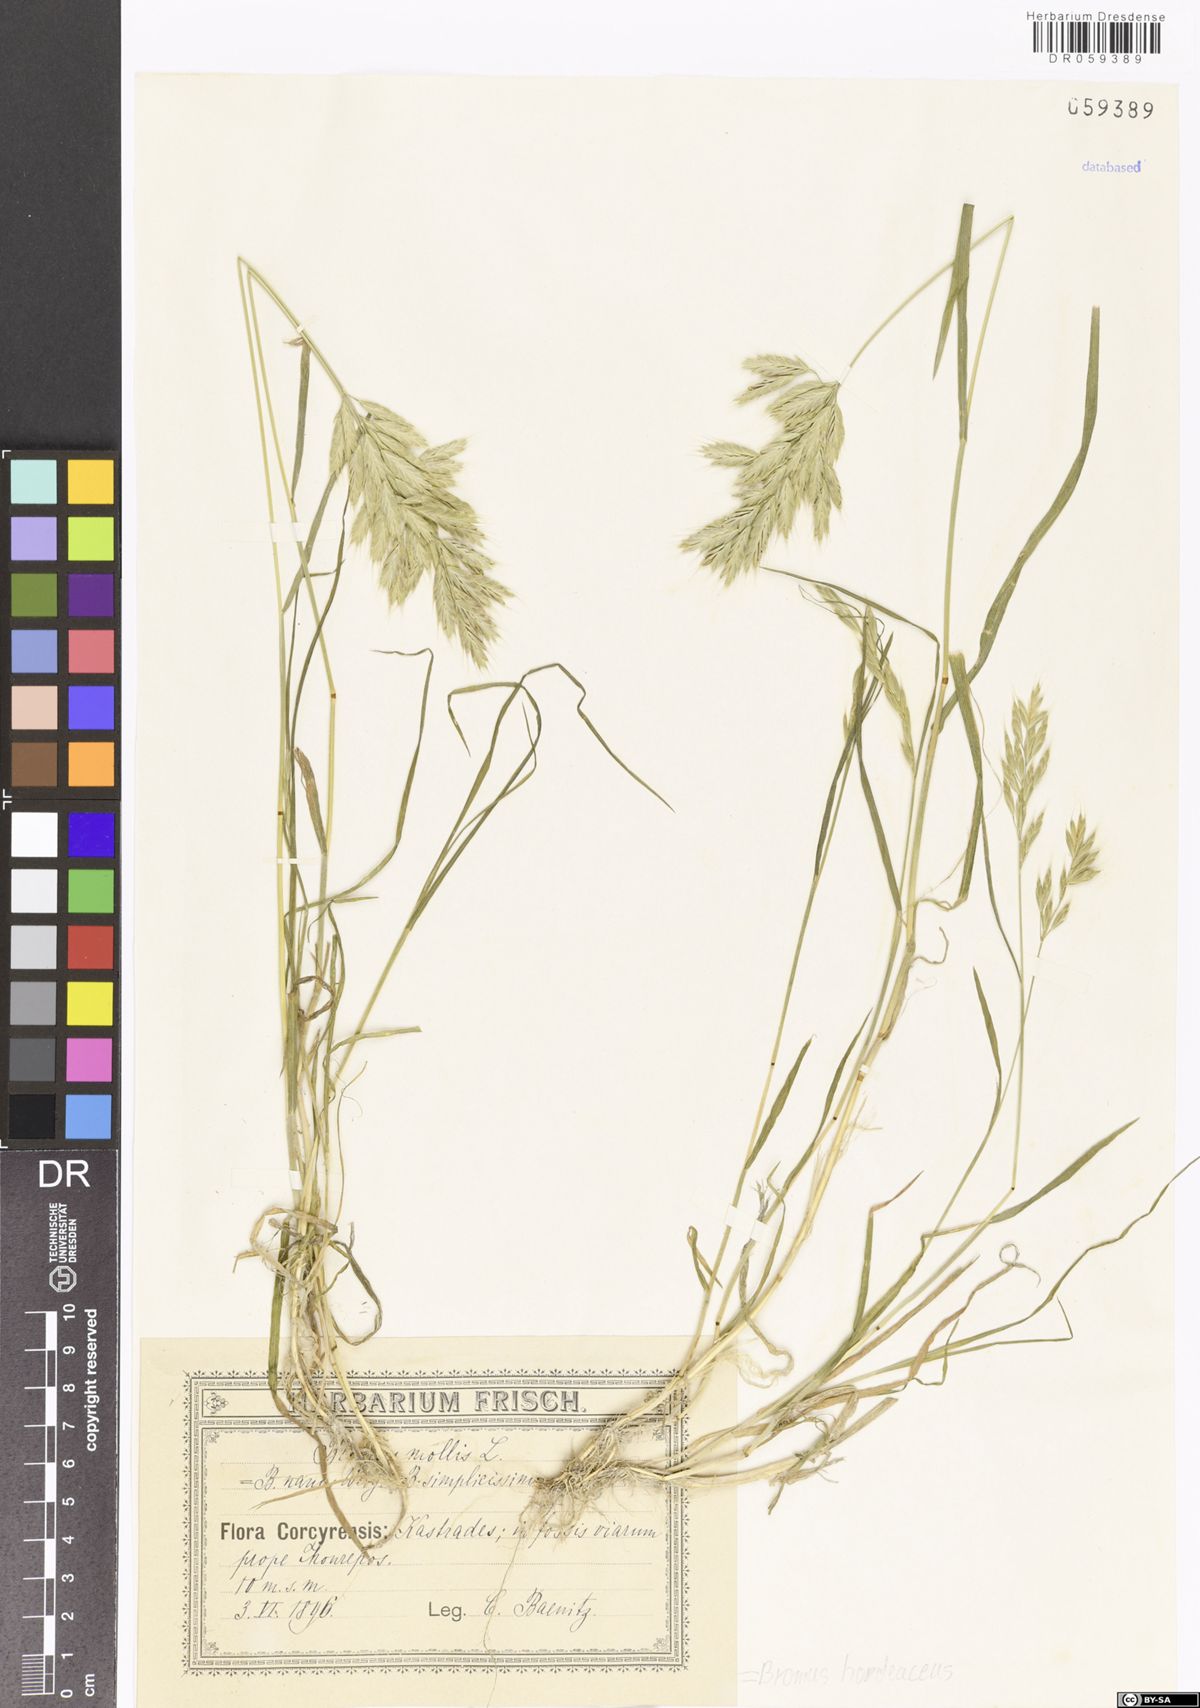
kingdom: Plantae
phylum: Tracheophyta
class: Liliopsida
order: Poales
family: Poaceae
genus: Bromus
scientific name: Bromus hordeaceus
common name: Soft brome
